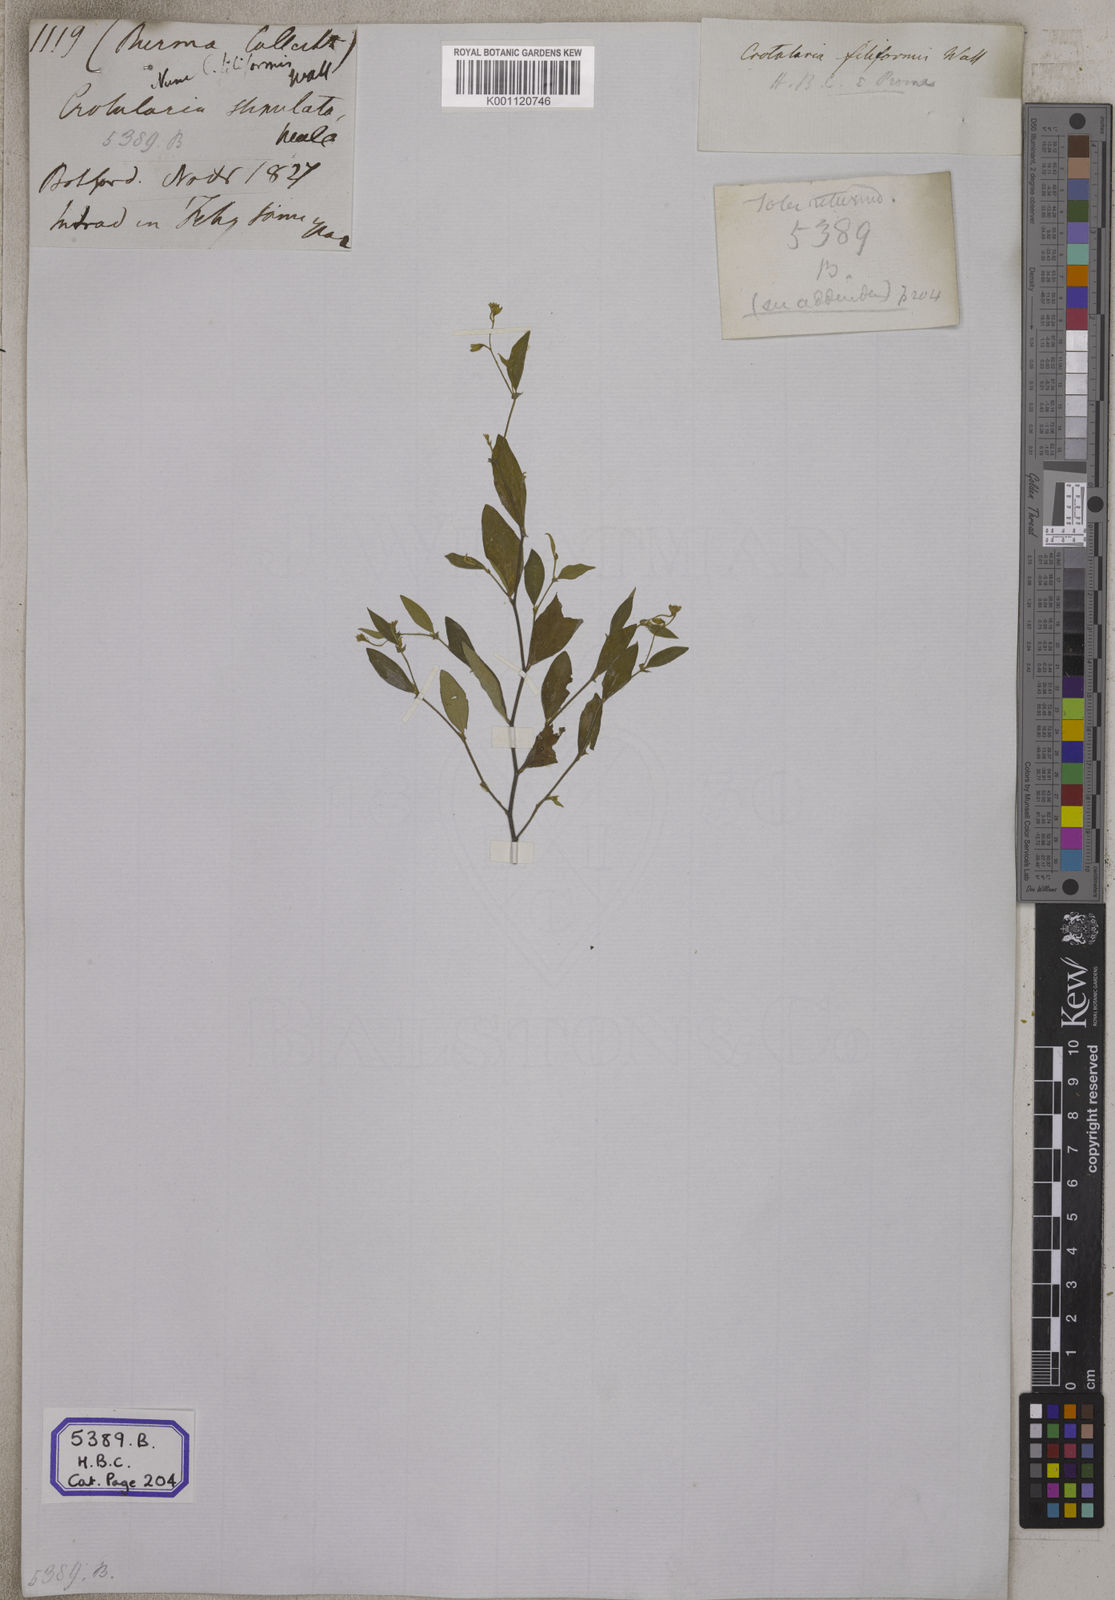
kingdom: Plantae
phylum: Tracheophyta
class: Magnoliopsida
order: Fabales
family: Fabaceae
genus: Crotalaria
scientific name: Crotalaria
